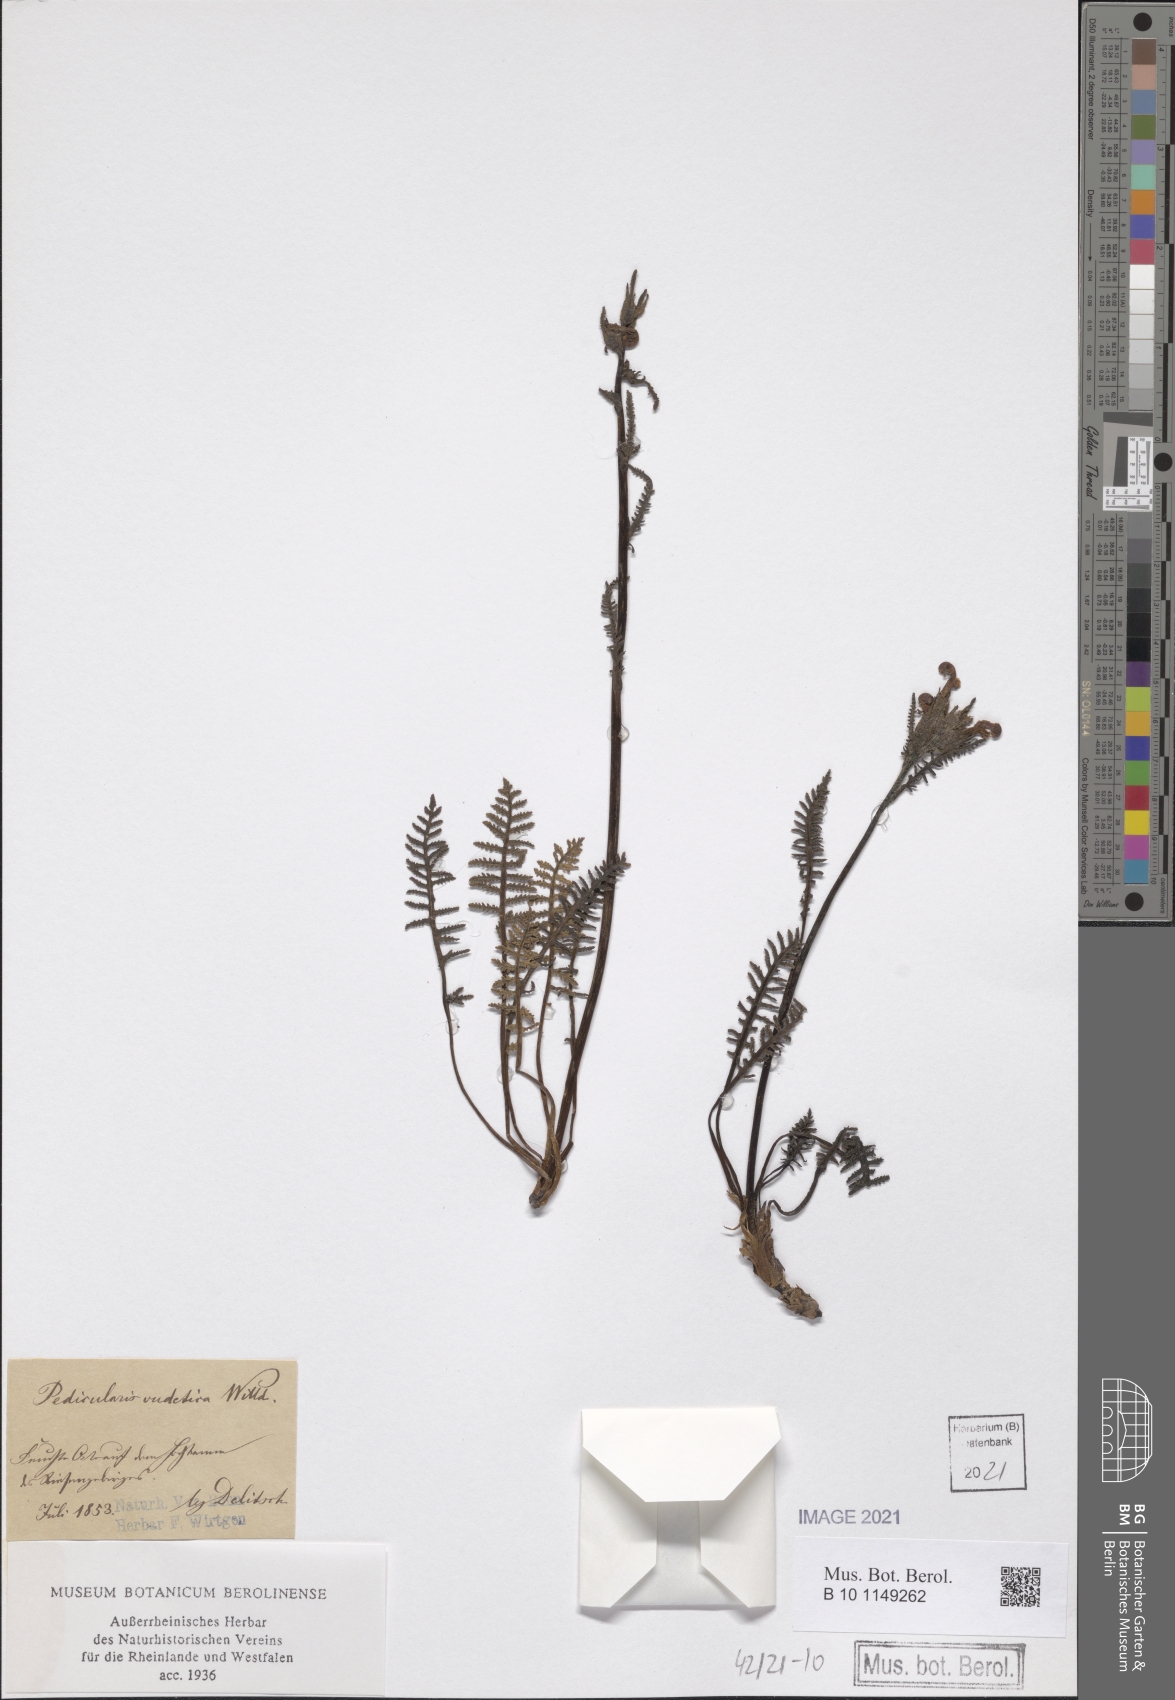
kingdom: Plantae
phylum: Tracheophyta
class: Magnoliopsida
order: Lamiales
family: Orobanchaceae
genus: Pedicularis
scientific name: Pedicularis sudetica
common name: Sudeten lousewort
